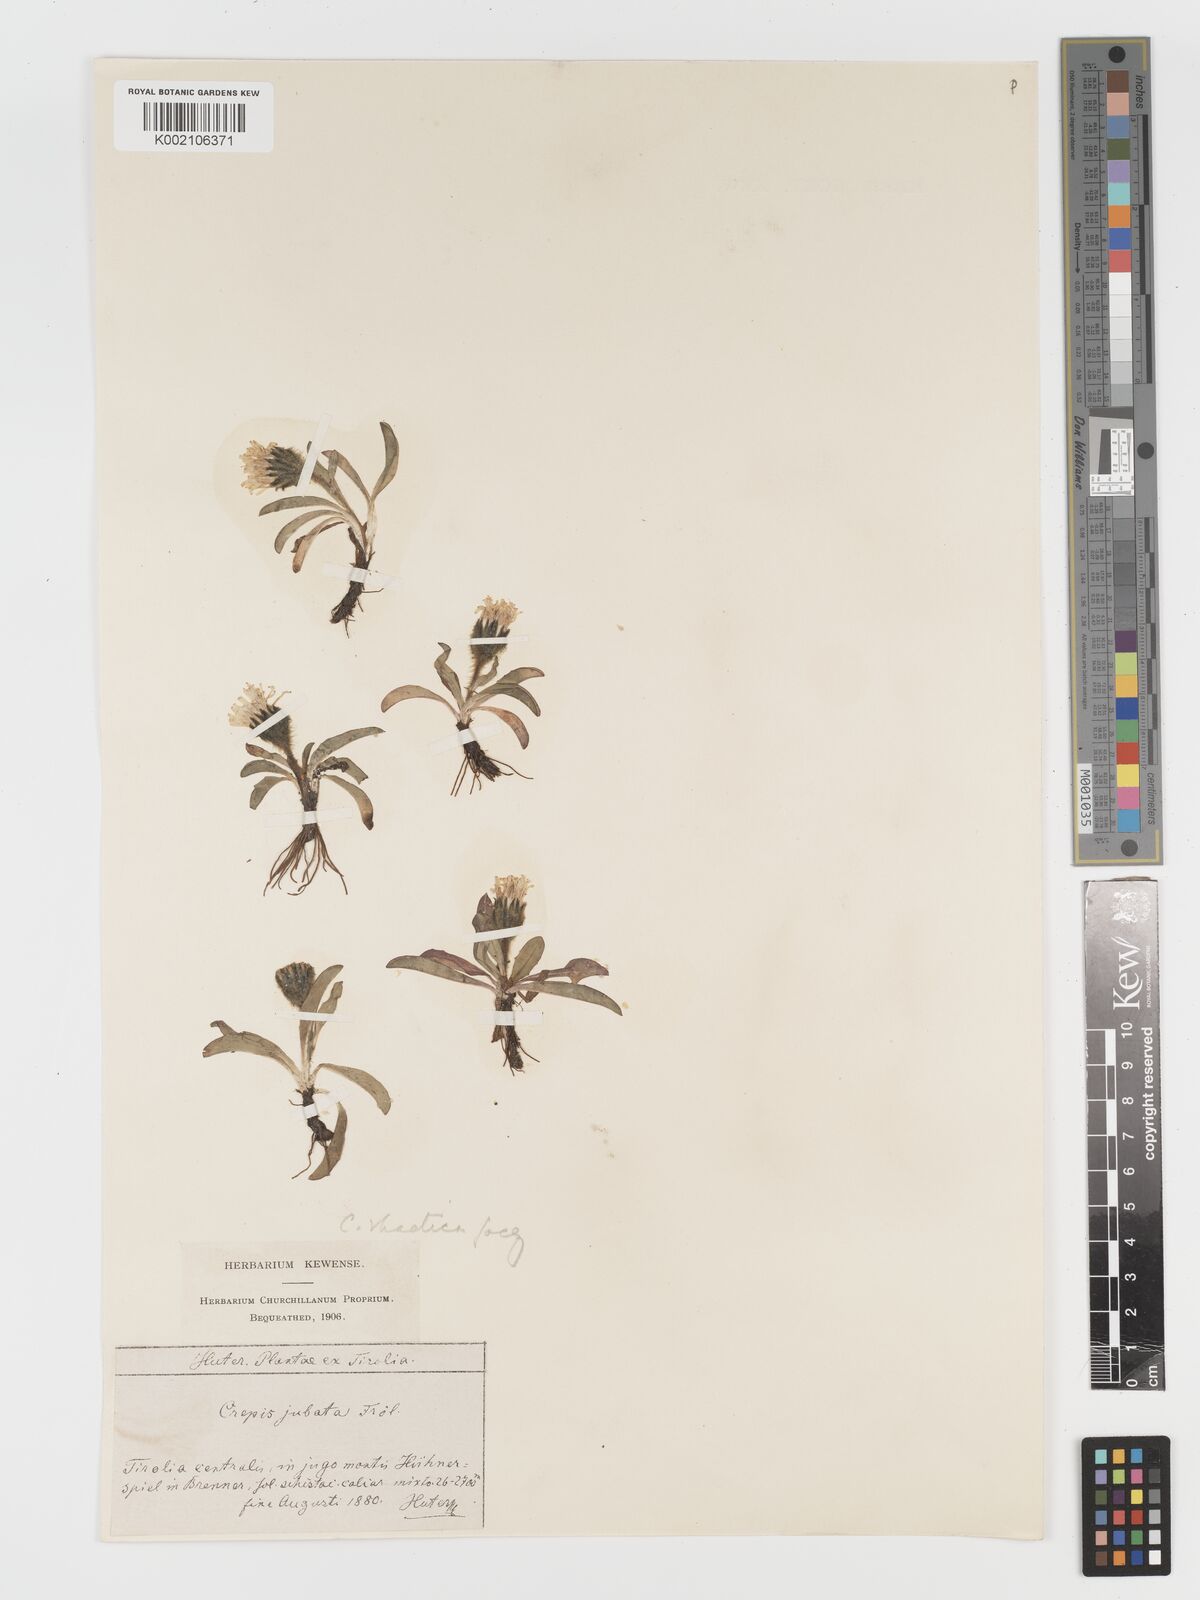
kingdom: Plantae
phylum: Tracheophyta
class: Magnoliopsida
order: Asterales
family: Asteraceae
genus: Crepis
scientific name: Crepis
